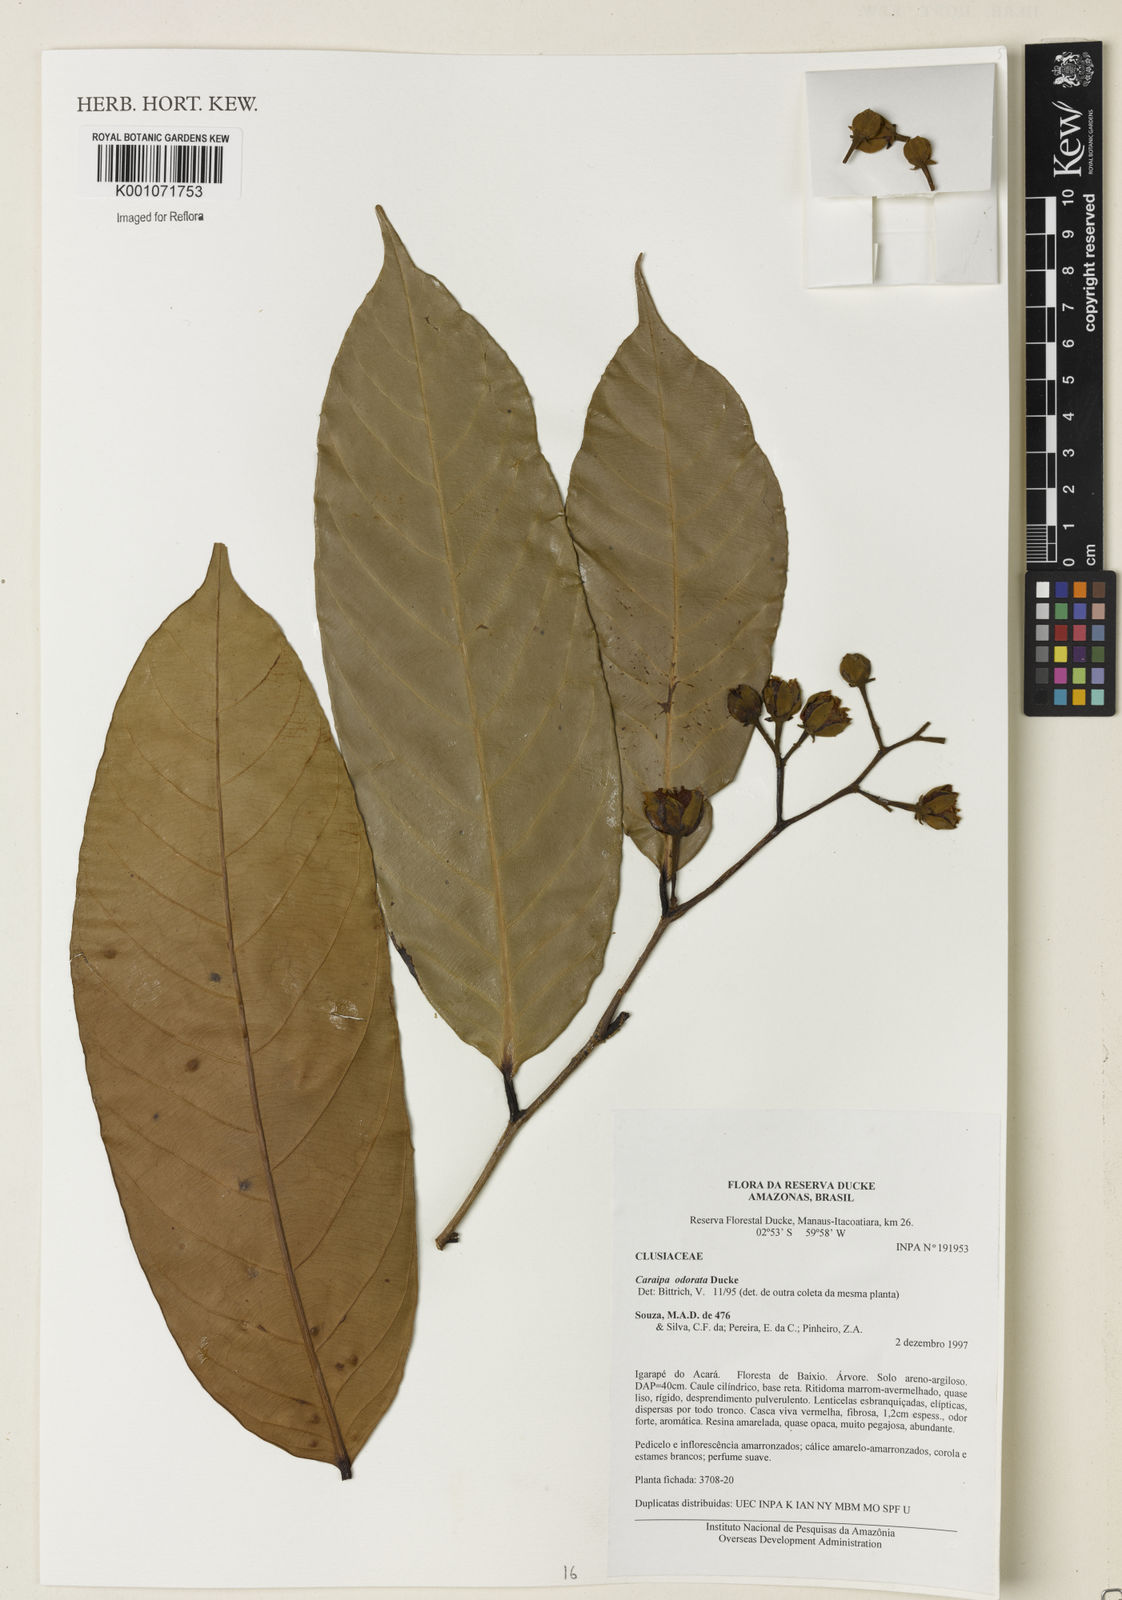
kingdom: Plantae
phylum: Tracheophyta
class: Magnoliopsida
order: Malpighiales
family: Calophyllaceae
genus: Caraipa
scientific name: Caraipa odorata
